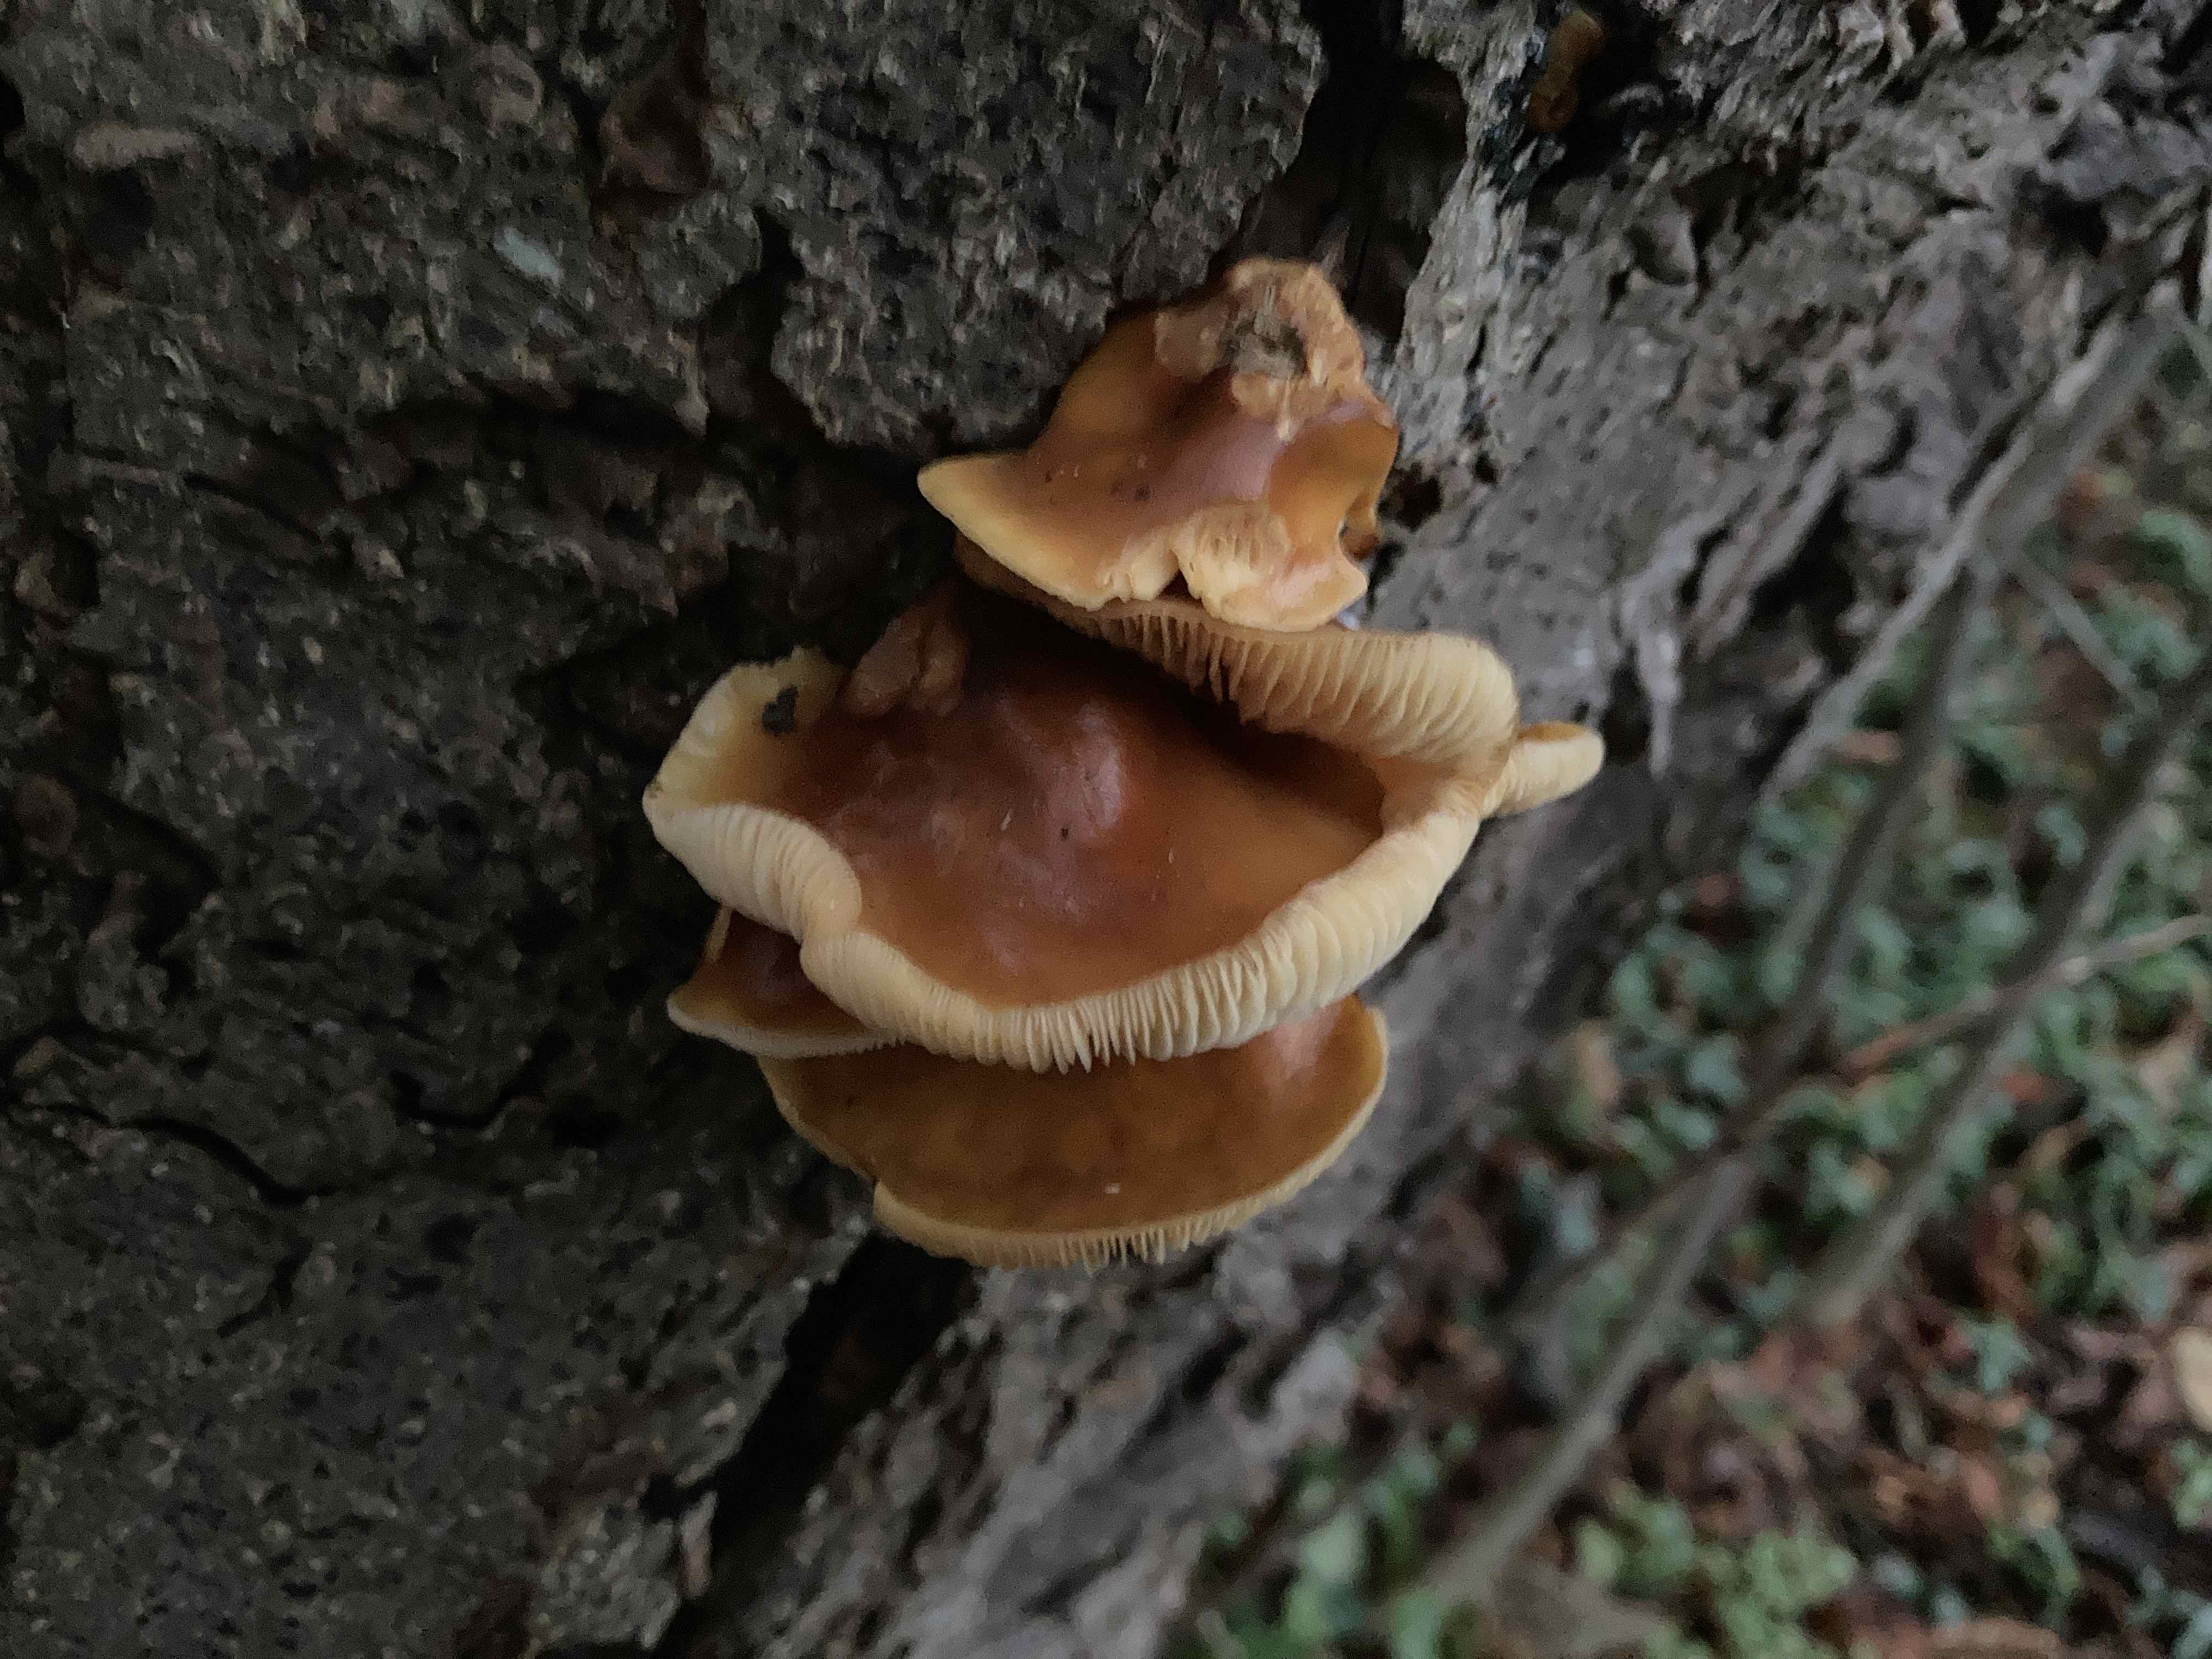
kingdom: Fungi
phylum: Basidiomycota
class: Agaricomycetes
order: Agaricales
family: Physalacriaceae
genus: Flammulina
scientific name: Flammulina velutipes
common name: gul fløjlsfod
